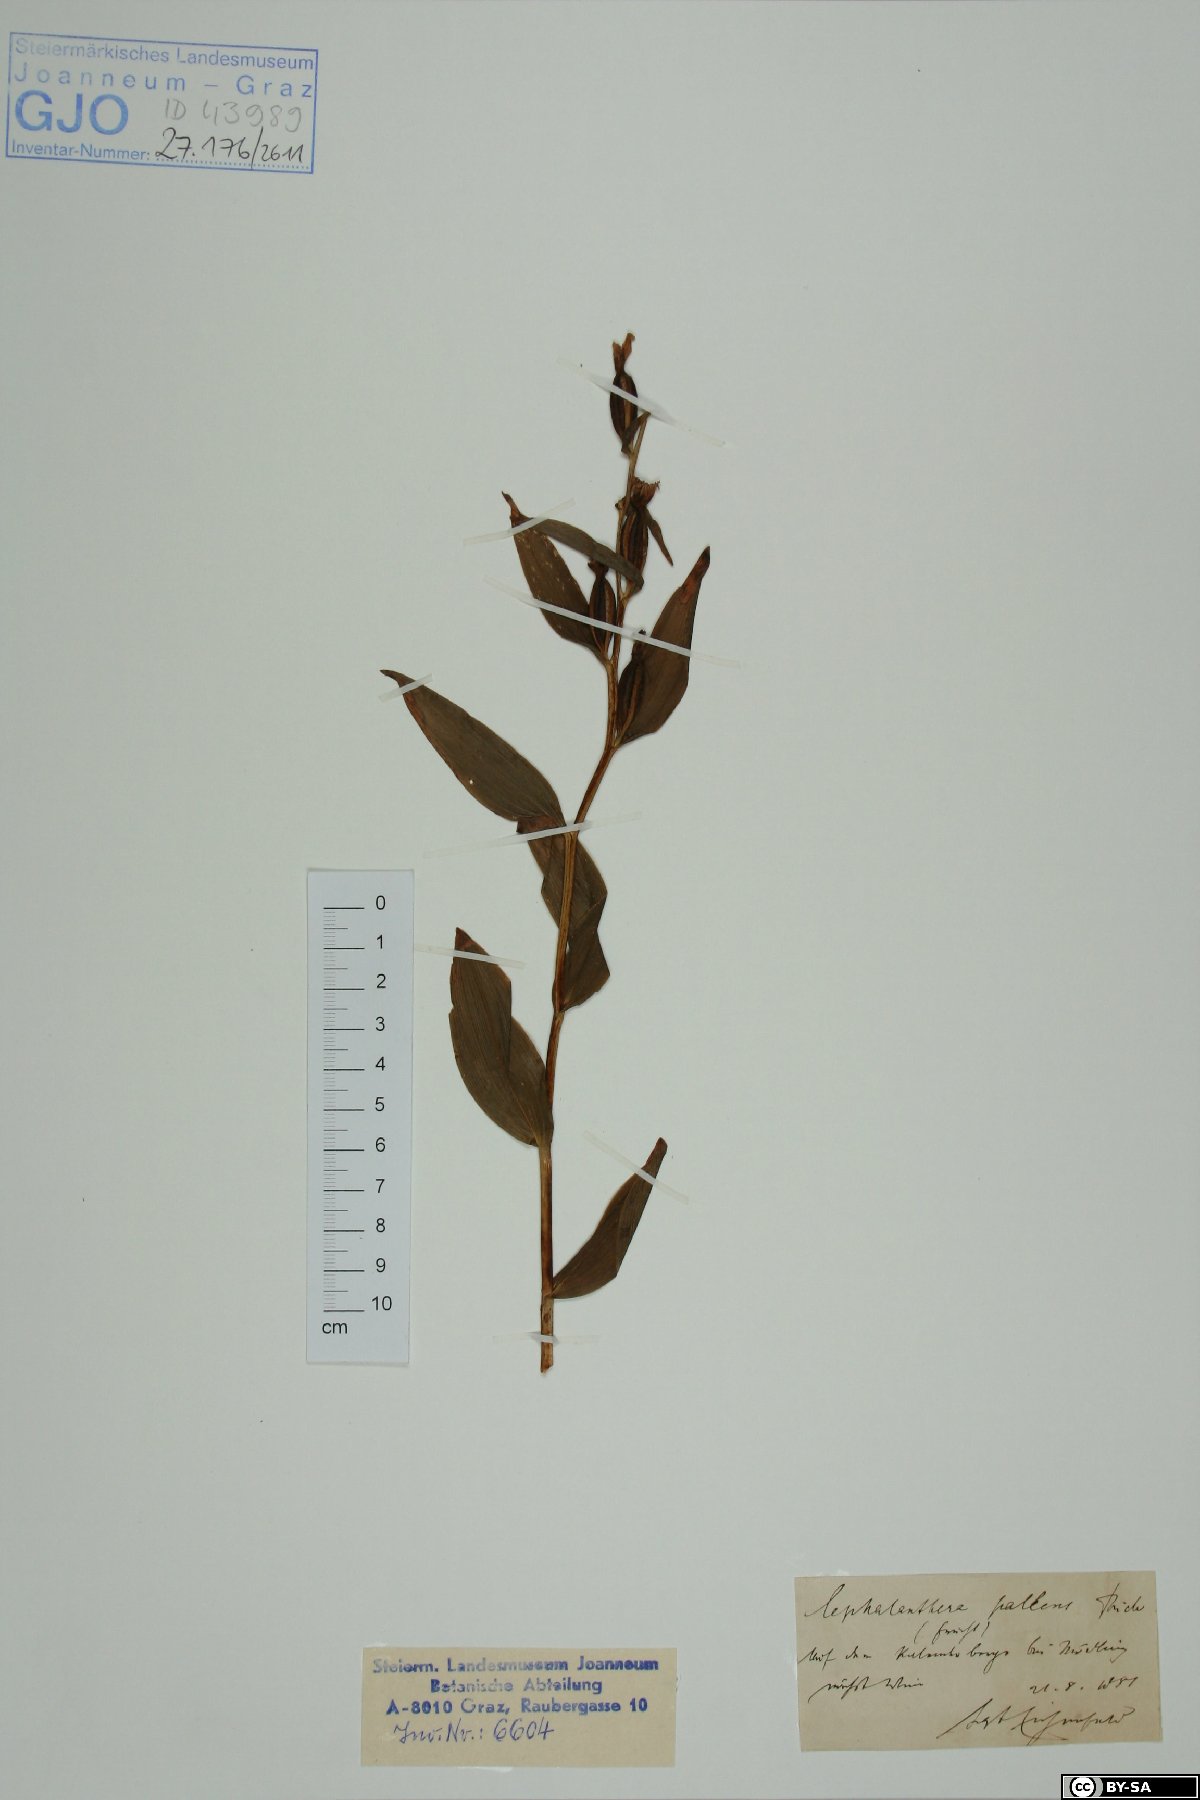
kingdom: Plantae
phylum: Tracheophyta
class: Liliopsida
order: Asparagales
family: Orchidaceae
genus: Cephalanthera
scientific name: Cephalanthera longifolia
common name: Narrow-leaved helleborine
